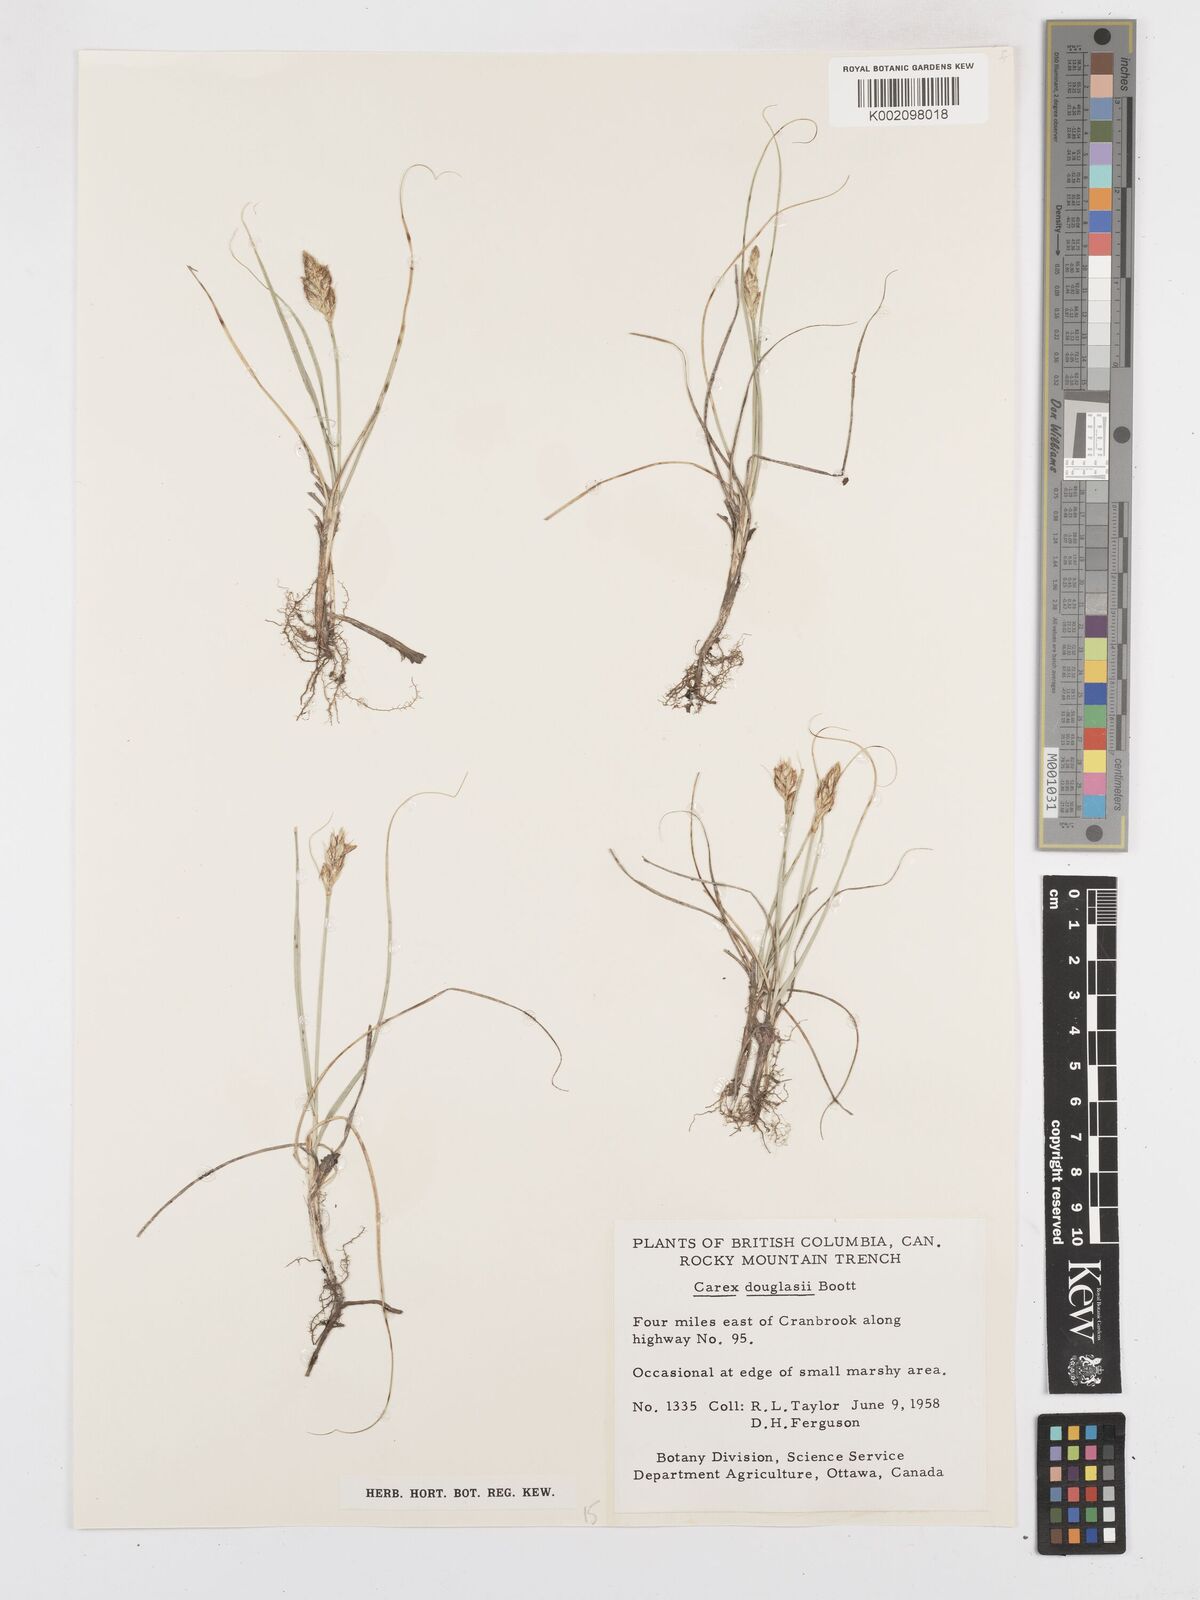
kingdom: Plantae
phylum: Tracheophyta
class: Liliopsida
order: Poales
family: Cyperaceae
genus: Carex
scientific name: Carex douglasii
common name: Douglas' sedge
